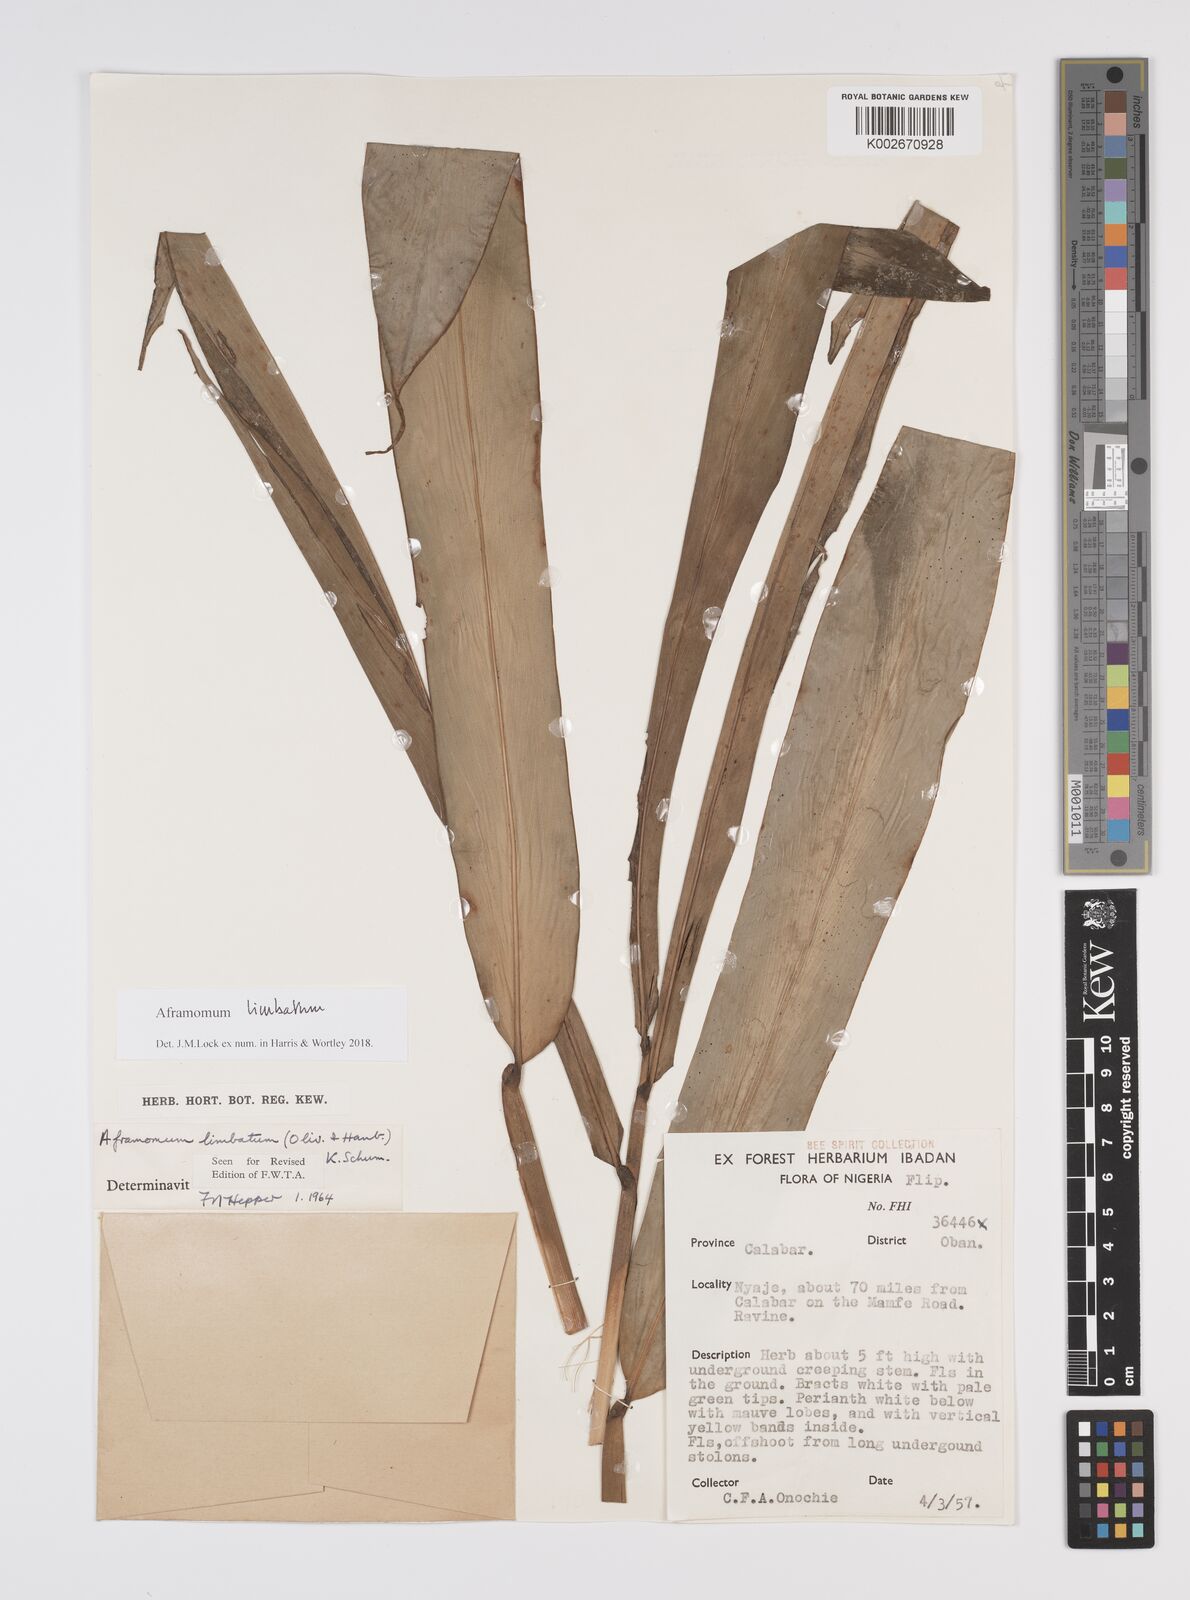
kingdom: Plantae
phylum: Tracheophyta
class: Liliopsida
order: Zingiberales
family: Zingiberaceae
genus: Aframomum
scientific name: Aframomum limbatum
